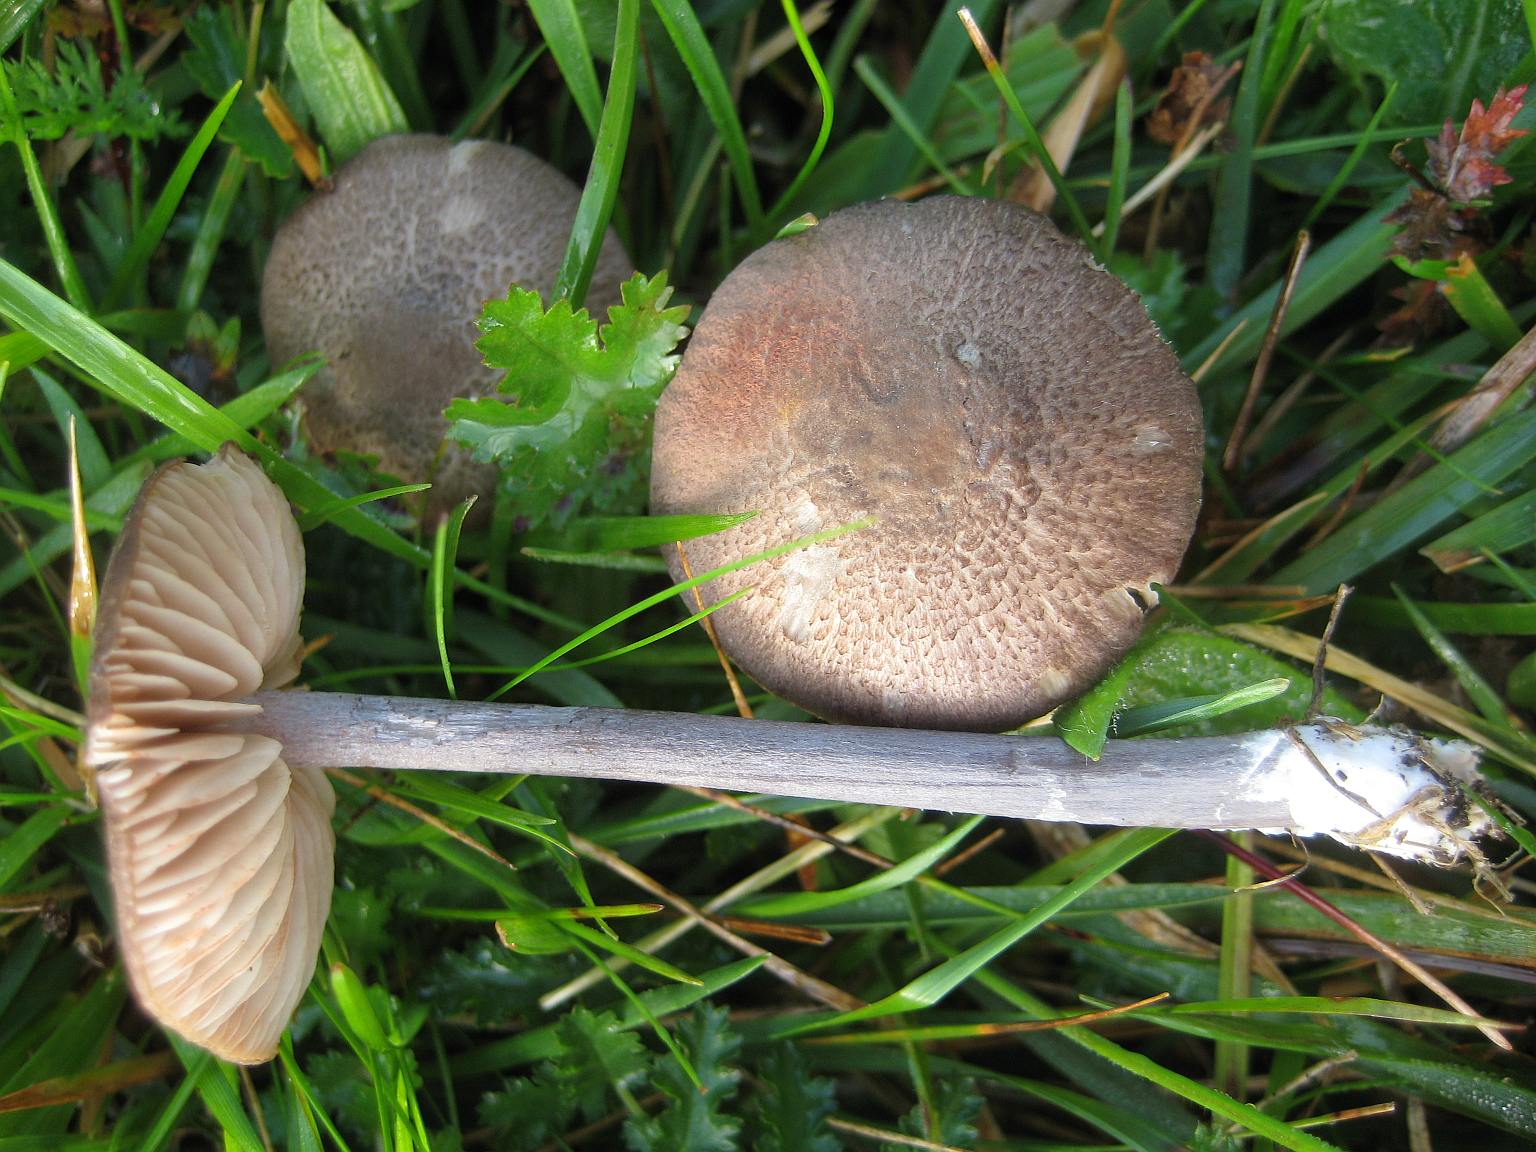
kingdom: Fungi
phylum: Basidiomycota
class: Agaricomycetes
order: Agaricales
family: Entolomataceae
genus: Entoloma
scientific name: Entoloma griseocyaneum
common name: gråblå rødblad
